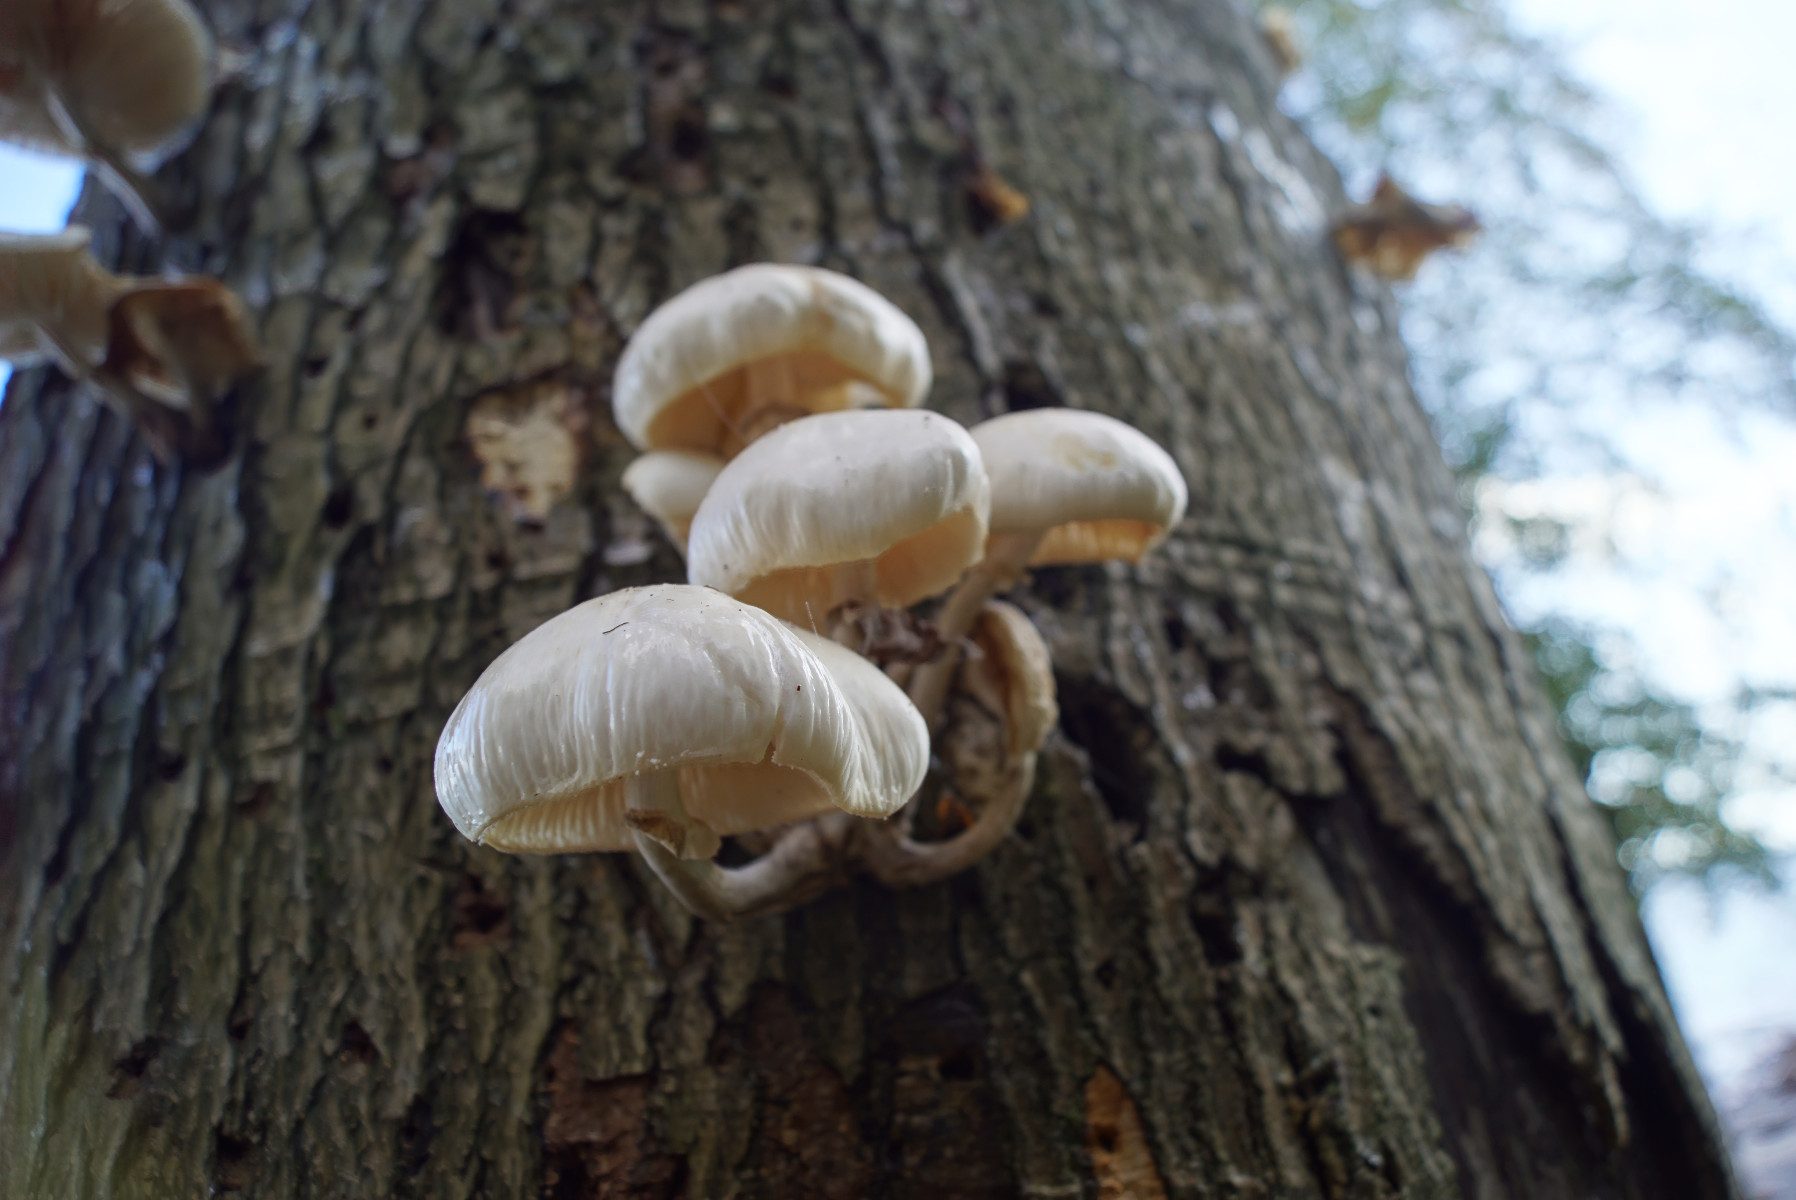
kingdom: Fungi
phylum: Basidiomycota
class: Agaricomycetes
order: Agaricales
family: Physalacriaceae
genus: Mucidula
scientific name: Mucidula mucida
